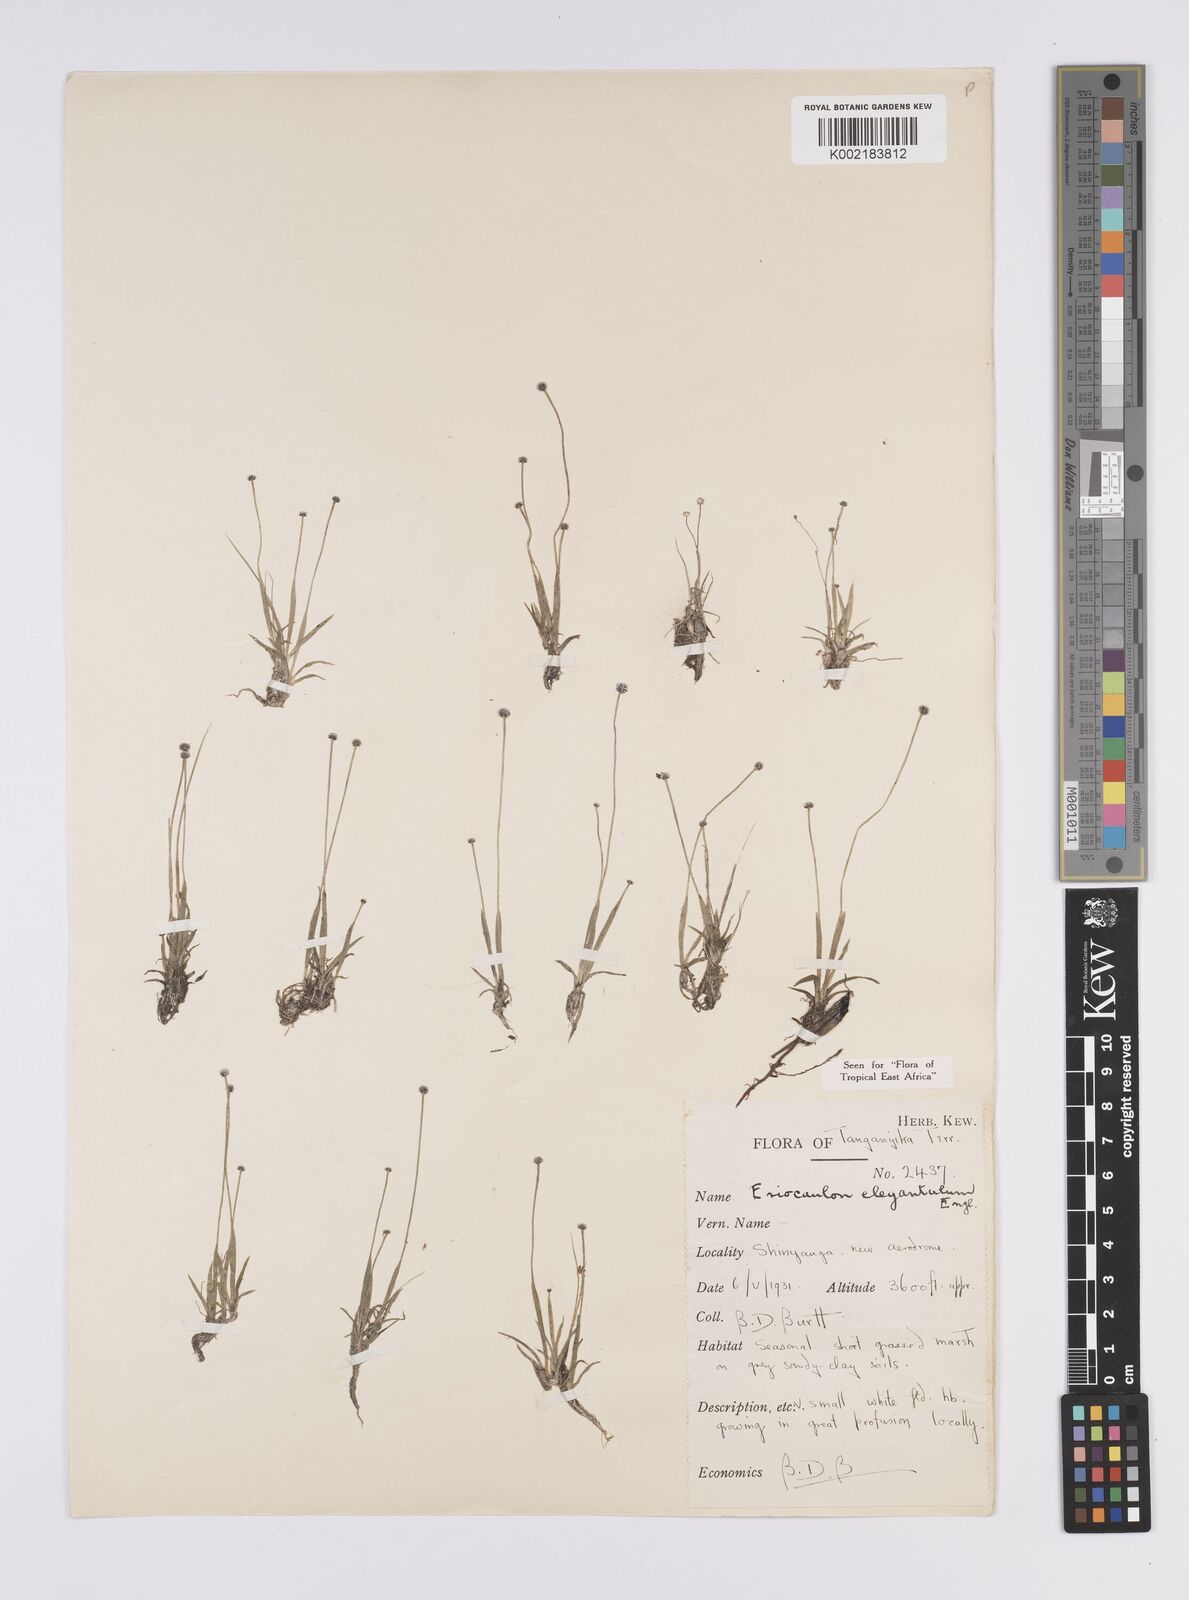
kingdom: Plantae
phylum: Tracheophyta
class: Liliopsida
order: Poales
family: Eriocaulaceae
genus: Eriocaulon
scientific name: Eriocaulon elegantulum
